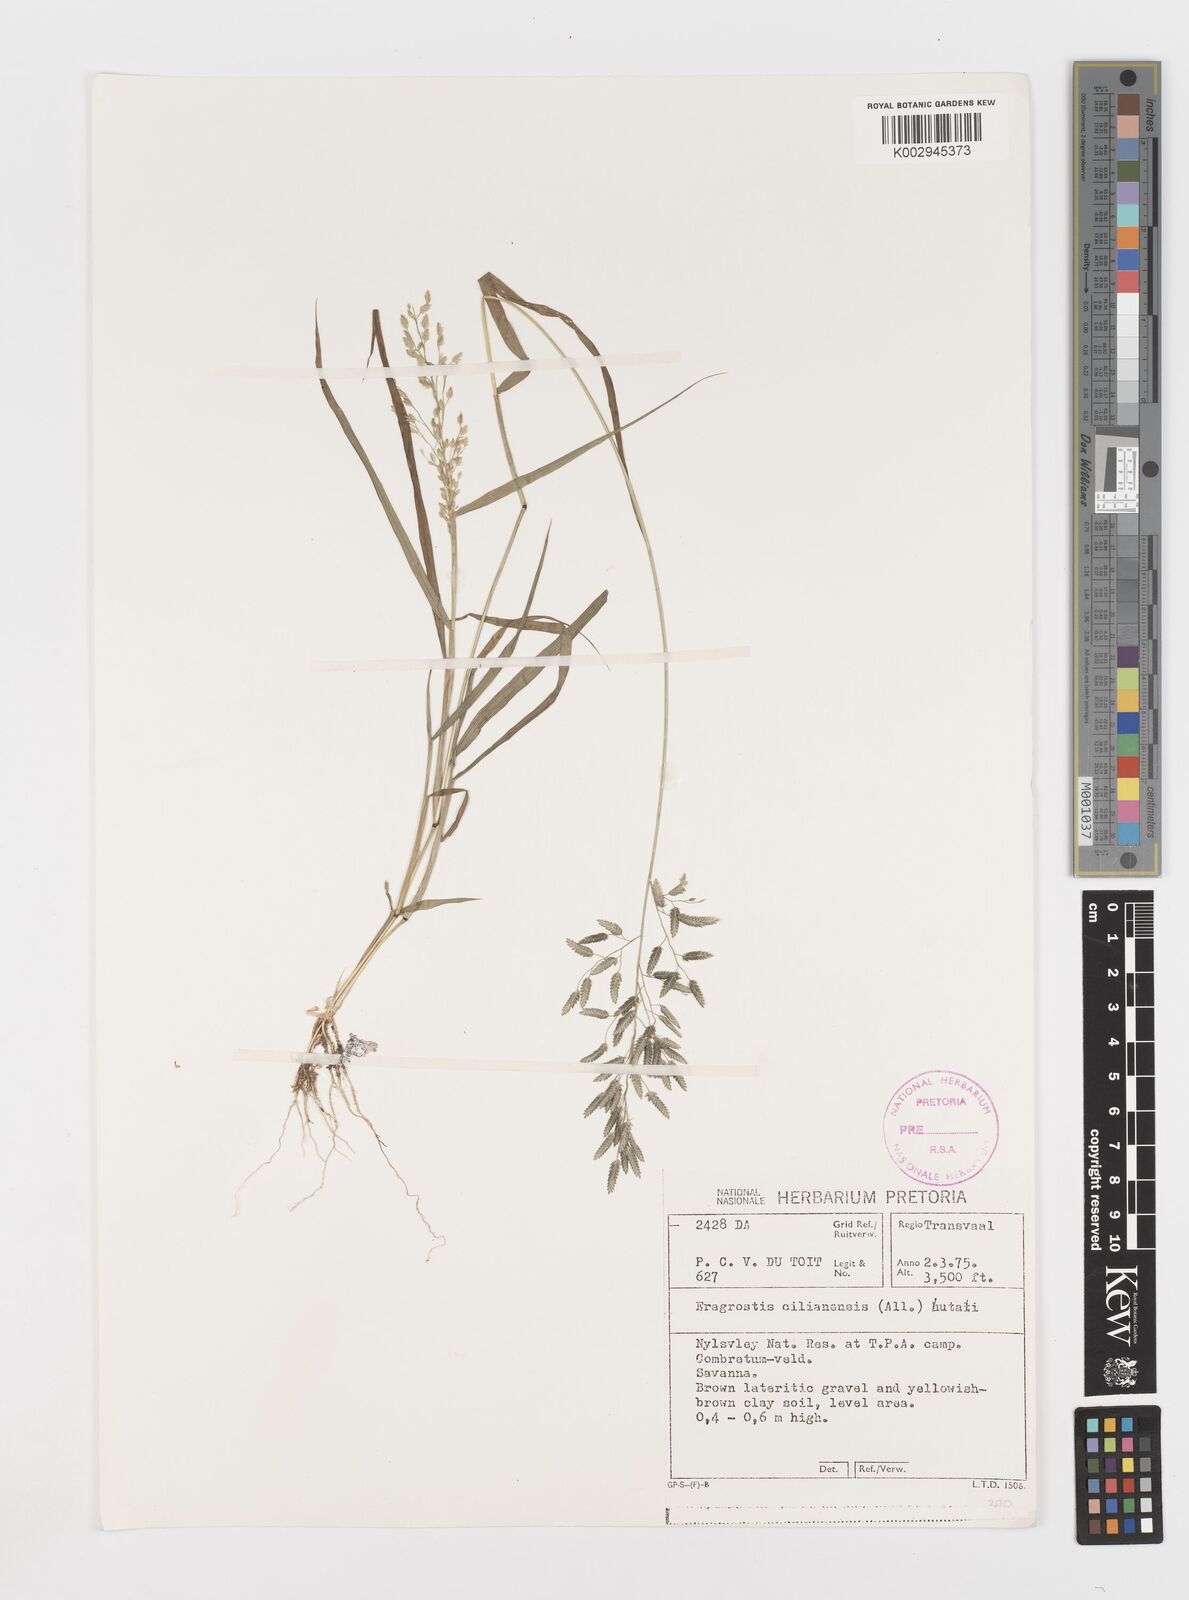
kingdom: Plantae
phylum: Tracheophyta
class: Liliopsida
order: Poales
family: Poaceae
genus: Eragrostis
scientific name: Eragrostis cilianensis
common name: Stinkgrass
